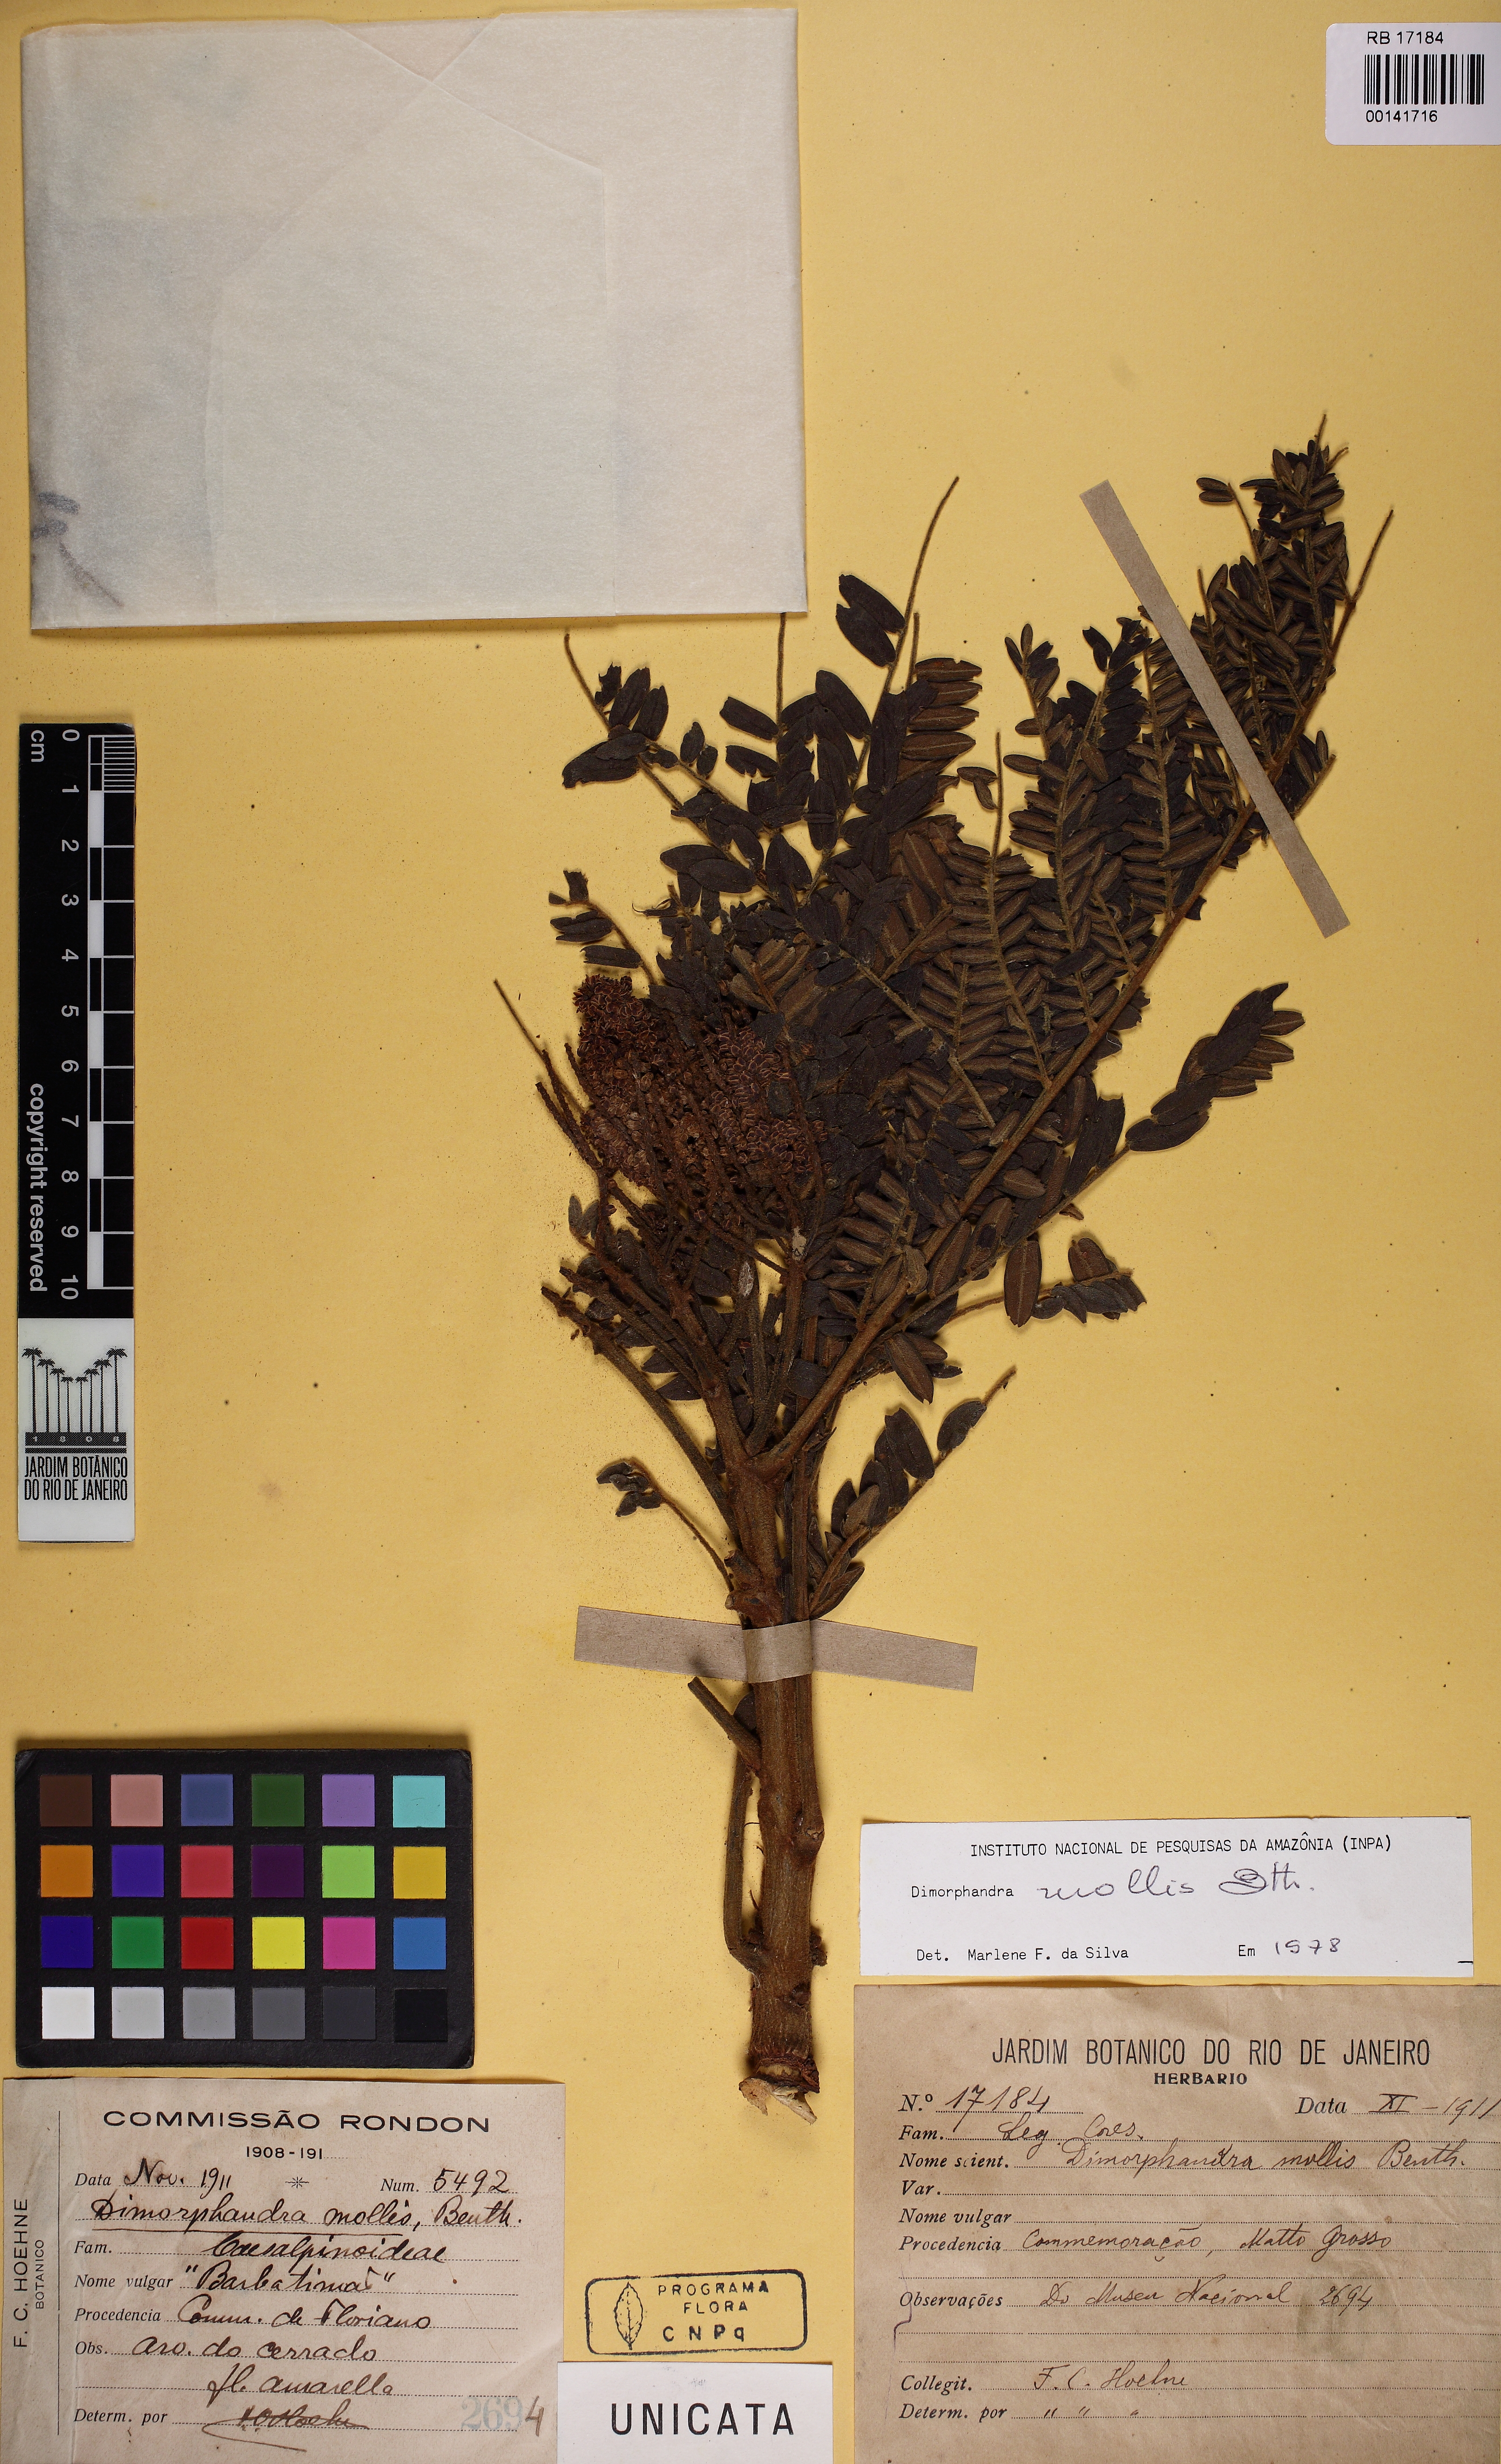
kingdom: Plantae
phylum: Tracheophyta
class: Magnoliopsida
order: Fabales
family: Fabaceae
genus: Dimorphandra
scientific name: Dimorphandra mollis
